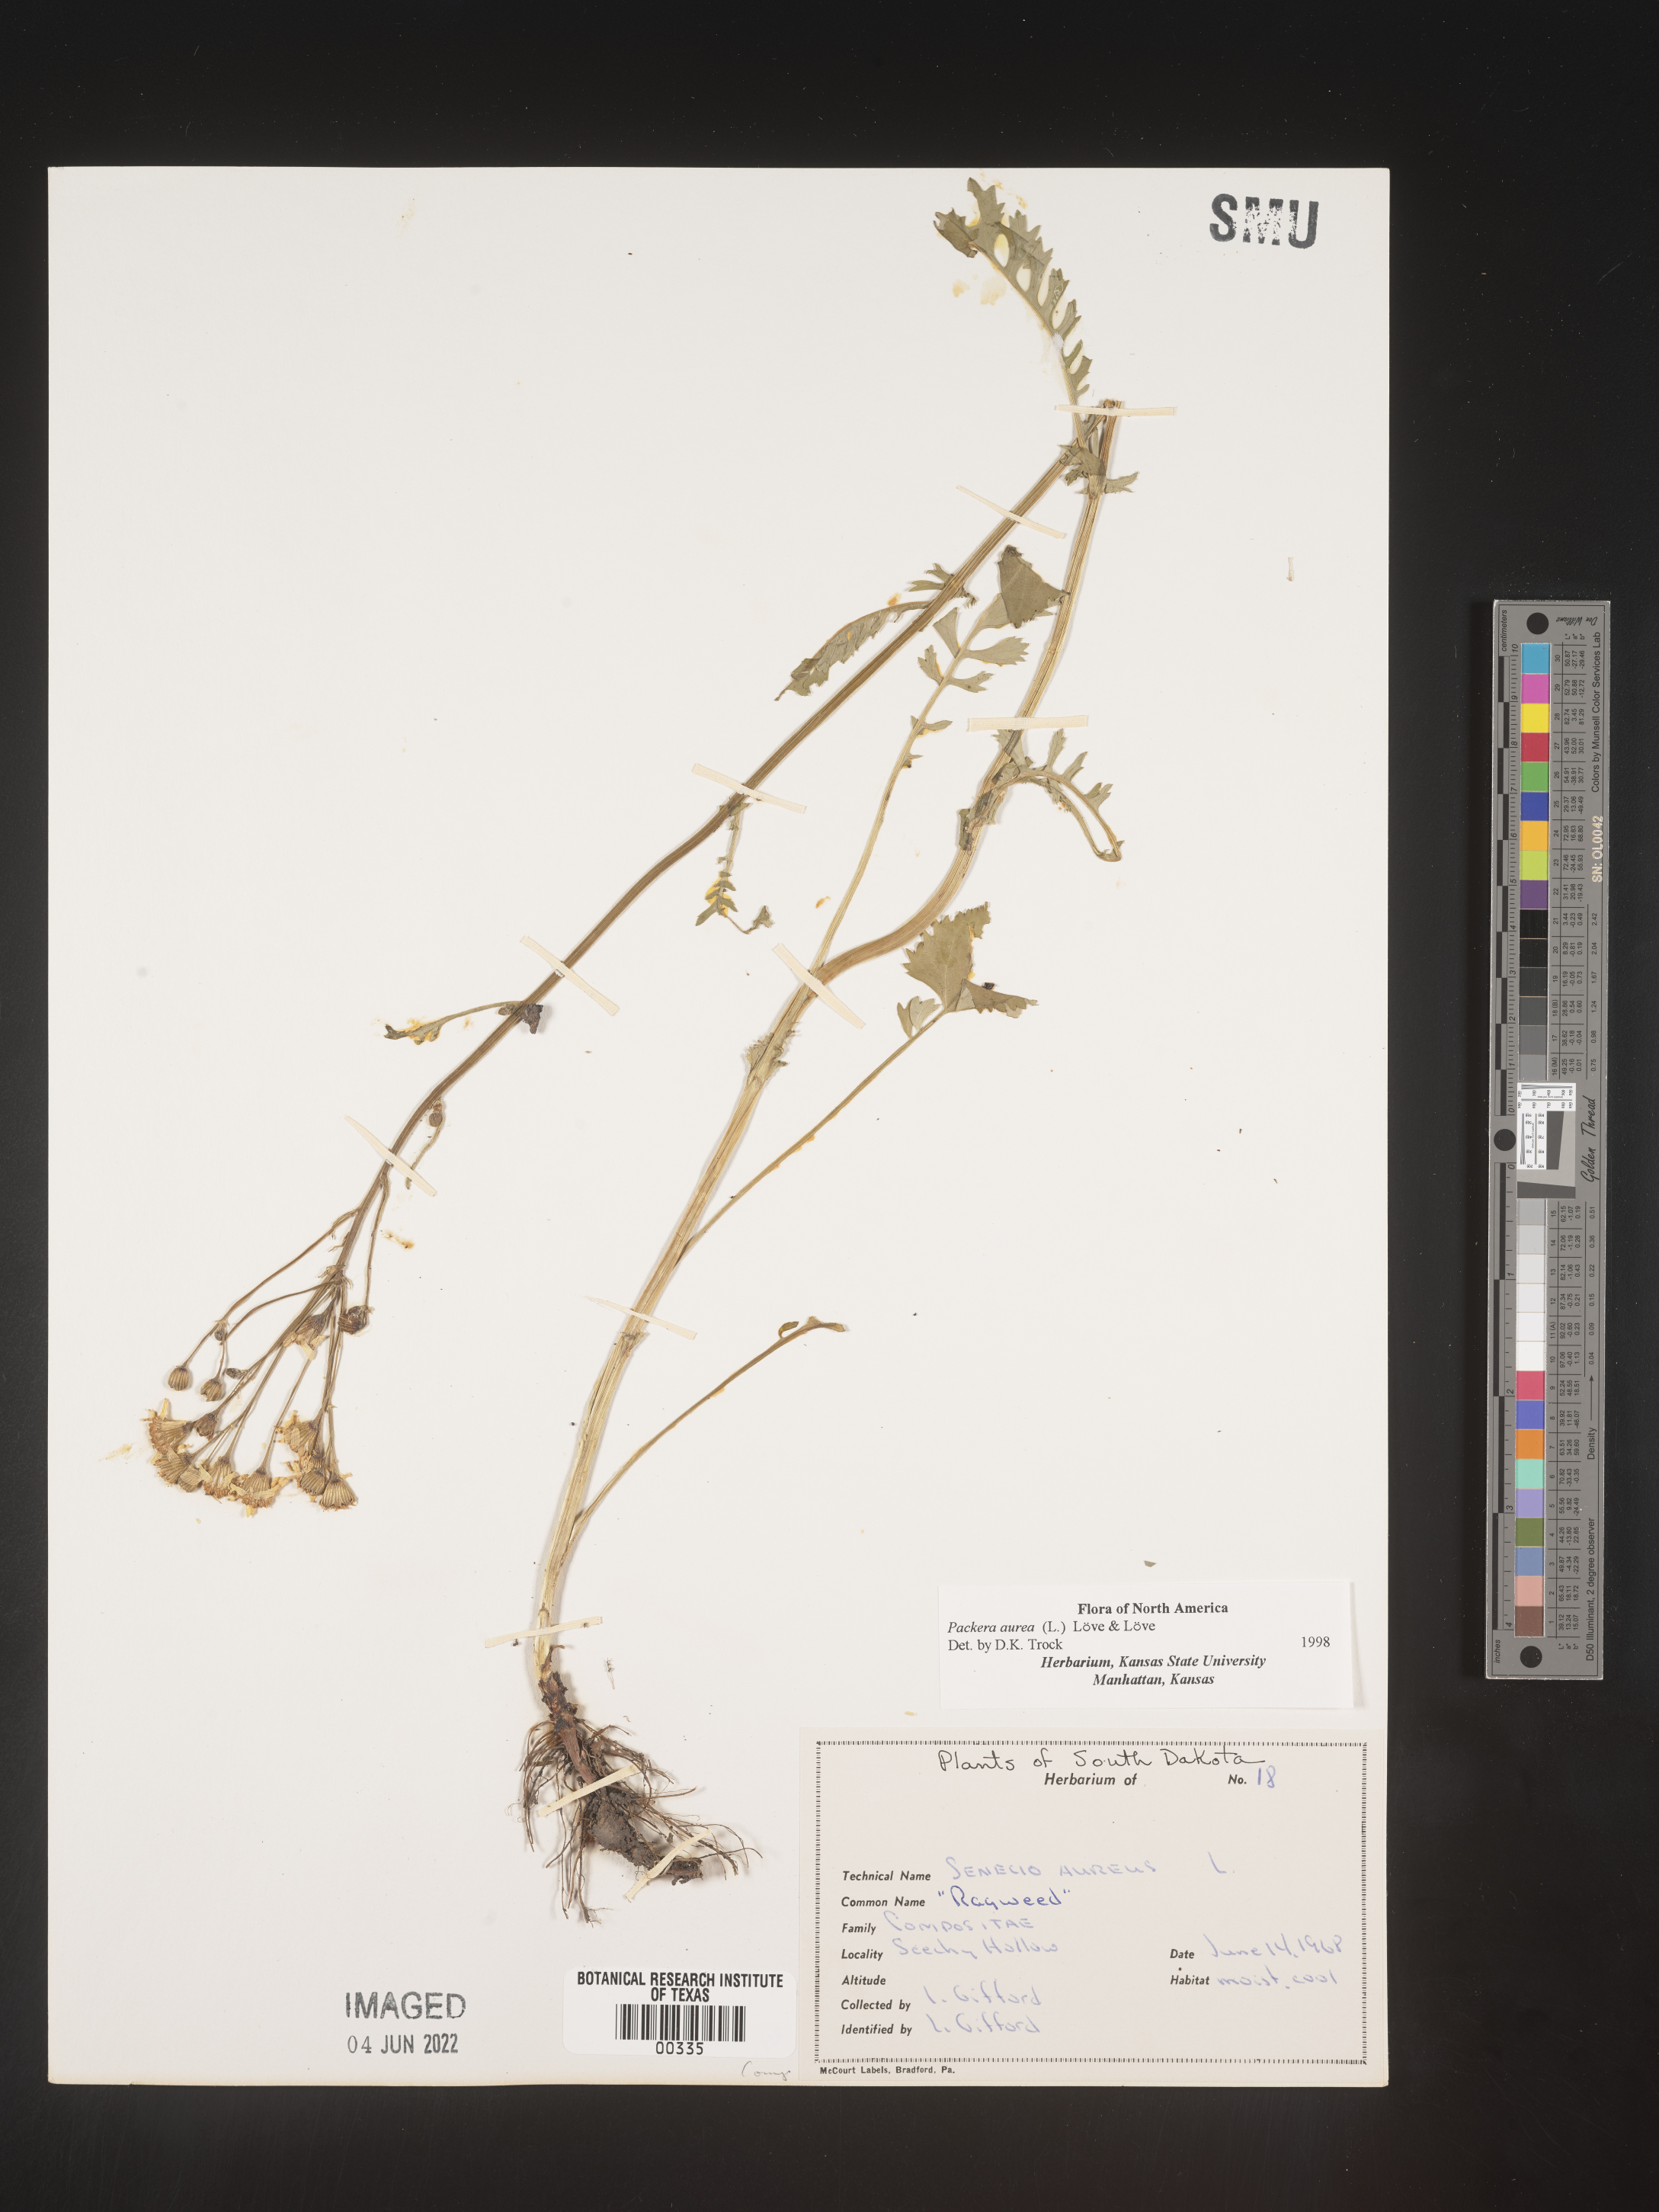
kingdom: Plantae
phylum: Tracheophyta
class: Magnoliopsida
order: Asterales
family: Asteraceae
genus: Packera
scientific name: Packera aurea
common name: Golden groundsel
